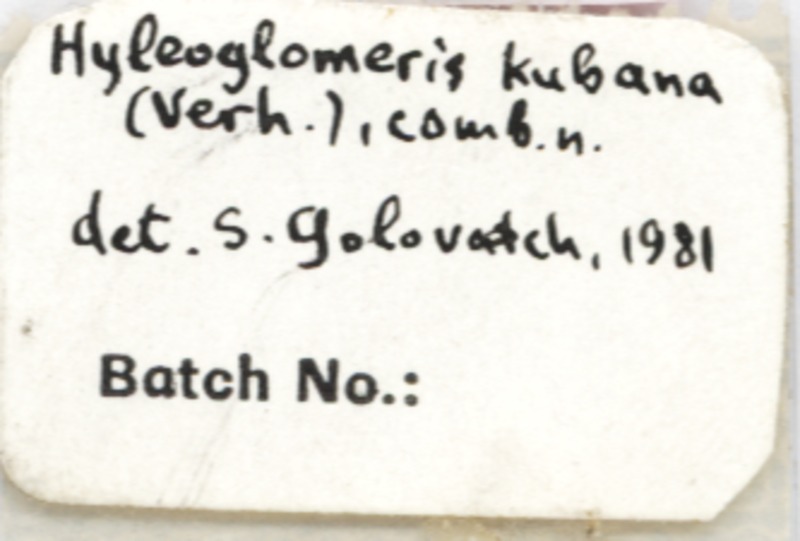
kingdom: Animalia
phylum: Arthropoda
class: Diplopoda
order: Glomerida
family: Glomeridae
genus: Hyleoglomeris
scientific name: Hyleoglomeris awchasica
